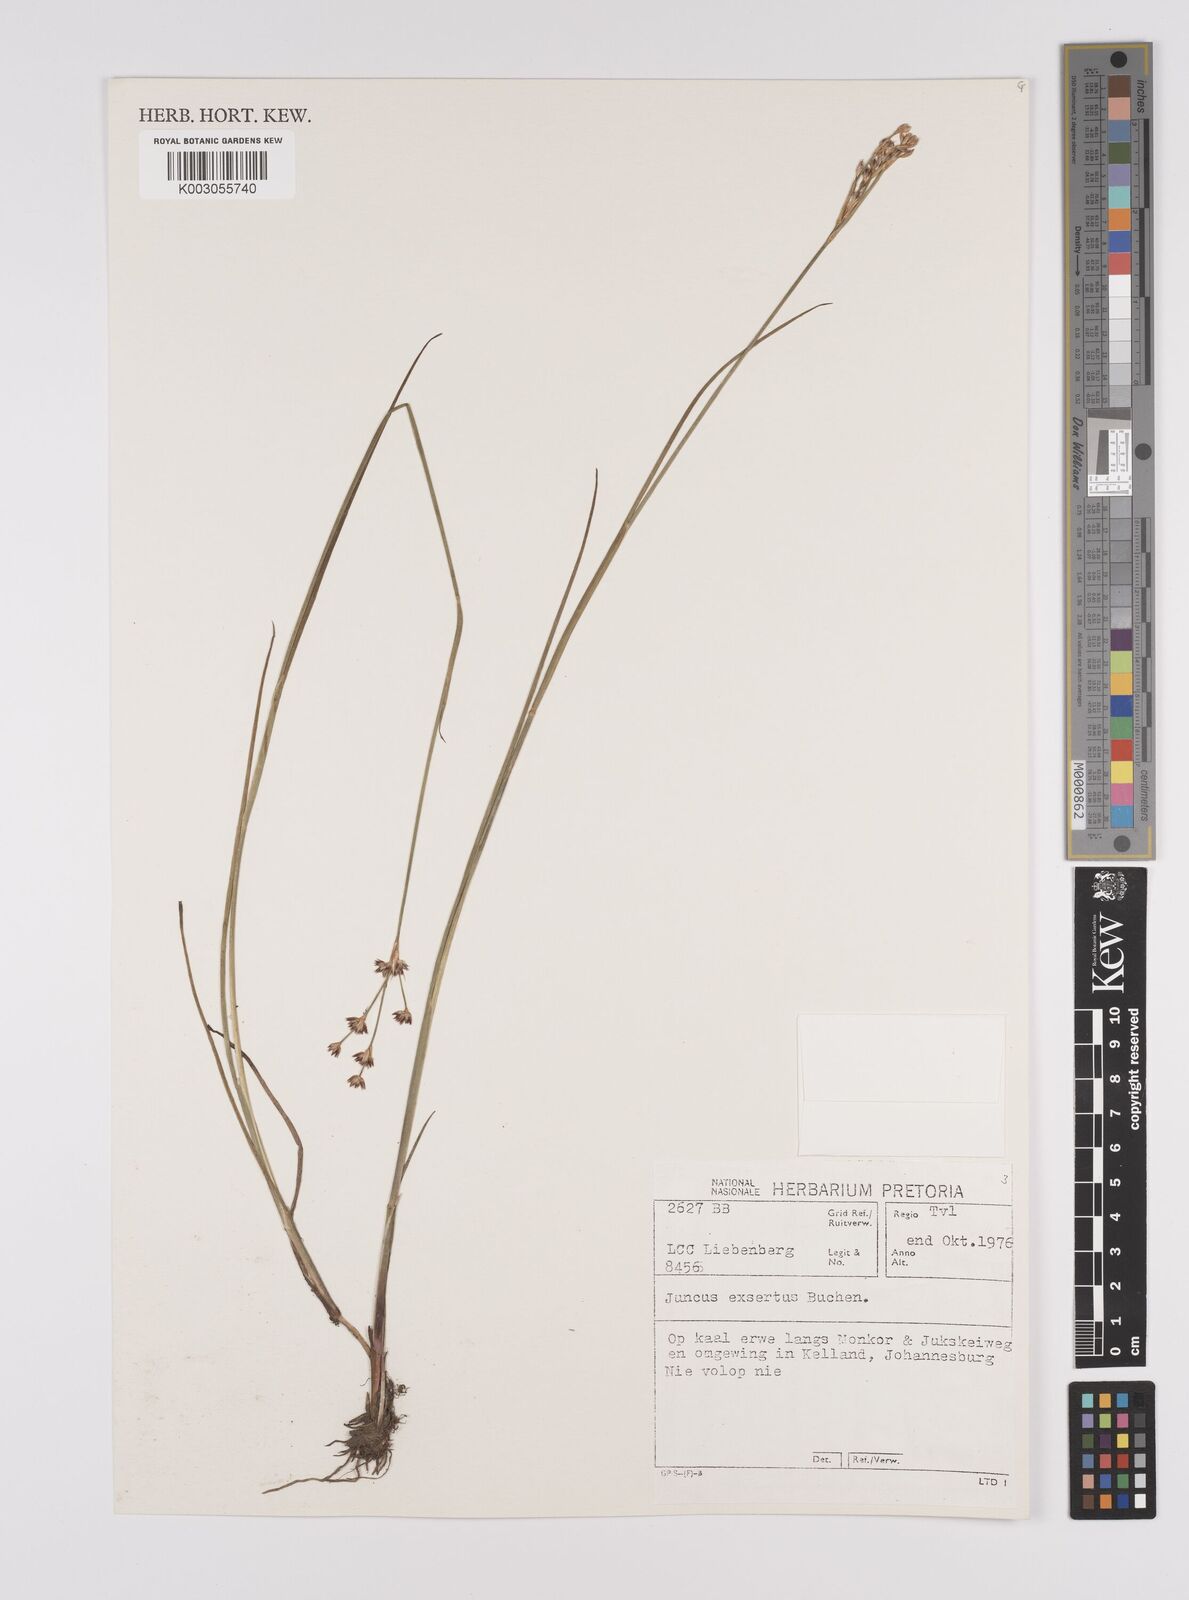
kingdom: Plantae
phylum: Tracheophyta
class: Liliopsida
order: Poales
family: Juncaceae
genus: Juncus
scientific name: Juncus exsertus
